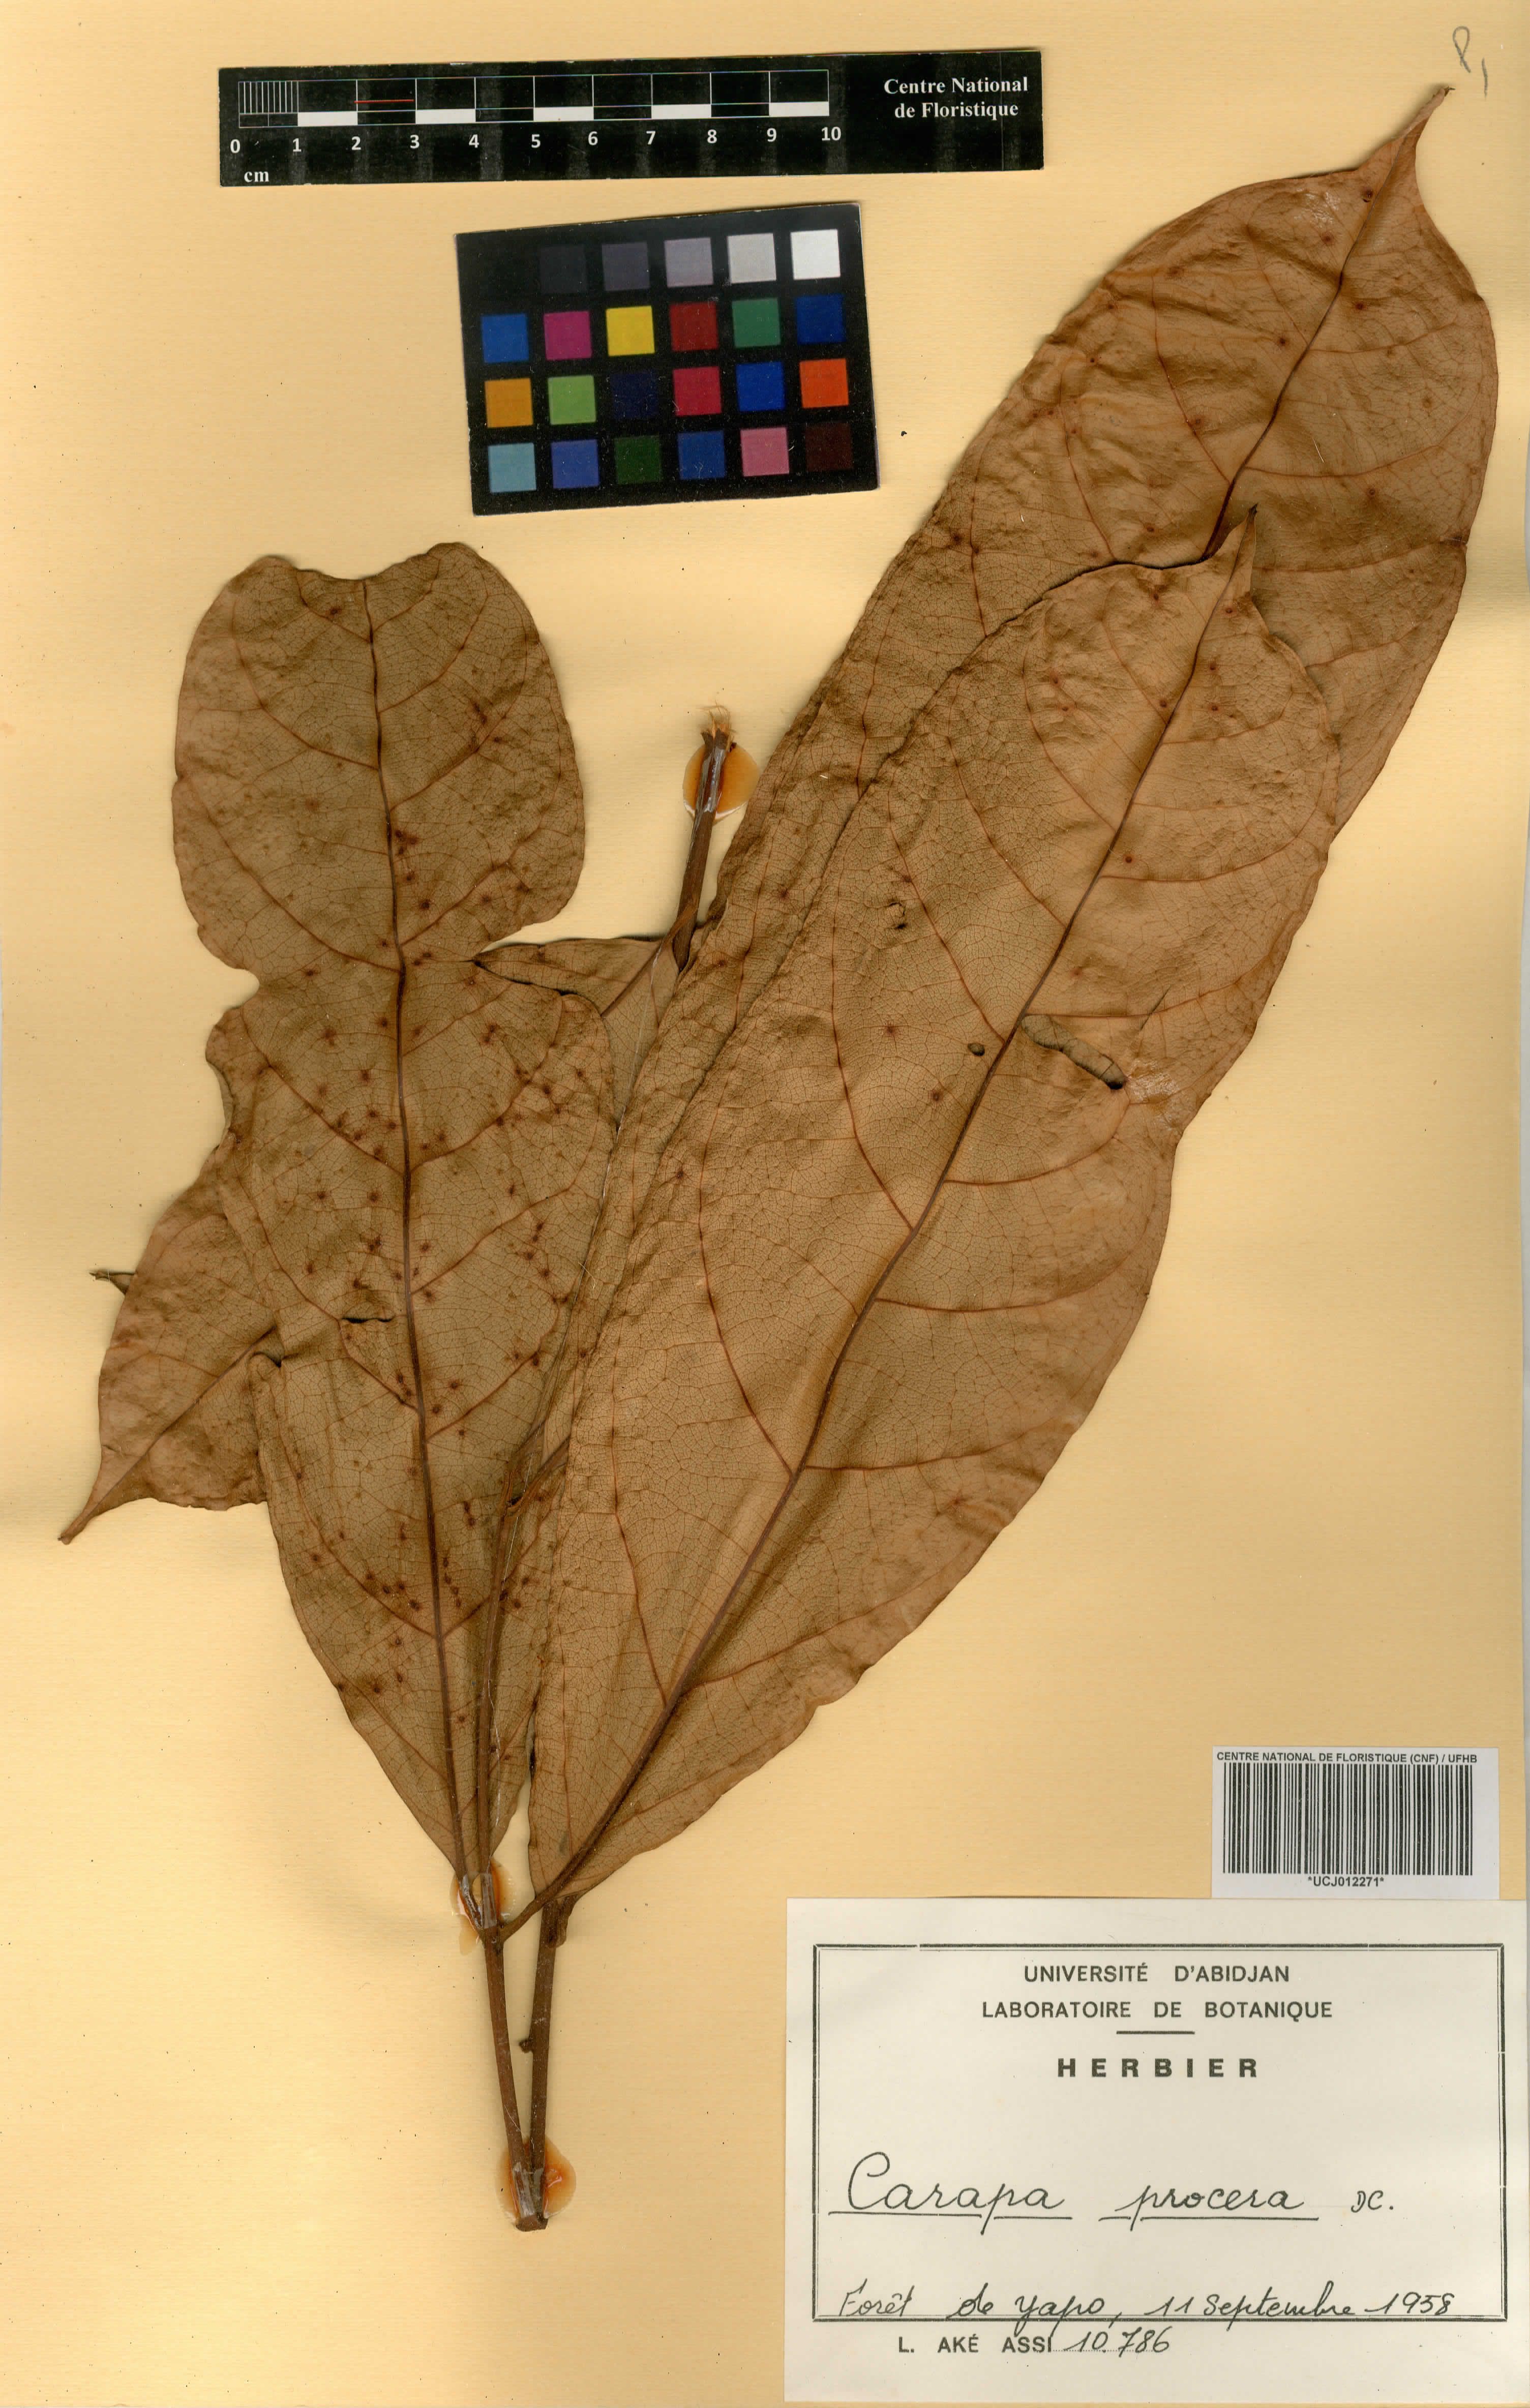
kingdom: Plantae
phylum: Tracheophyta
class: Magnoliopsida
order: Sapindales
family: Meliaceae
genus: Carapa
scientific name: Carapa procera
